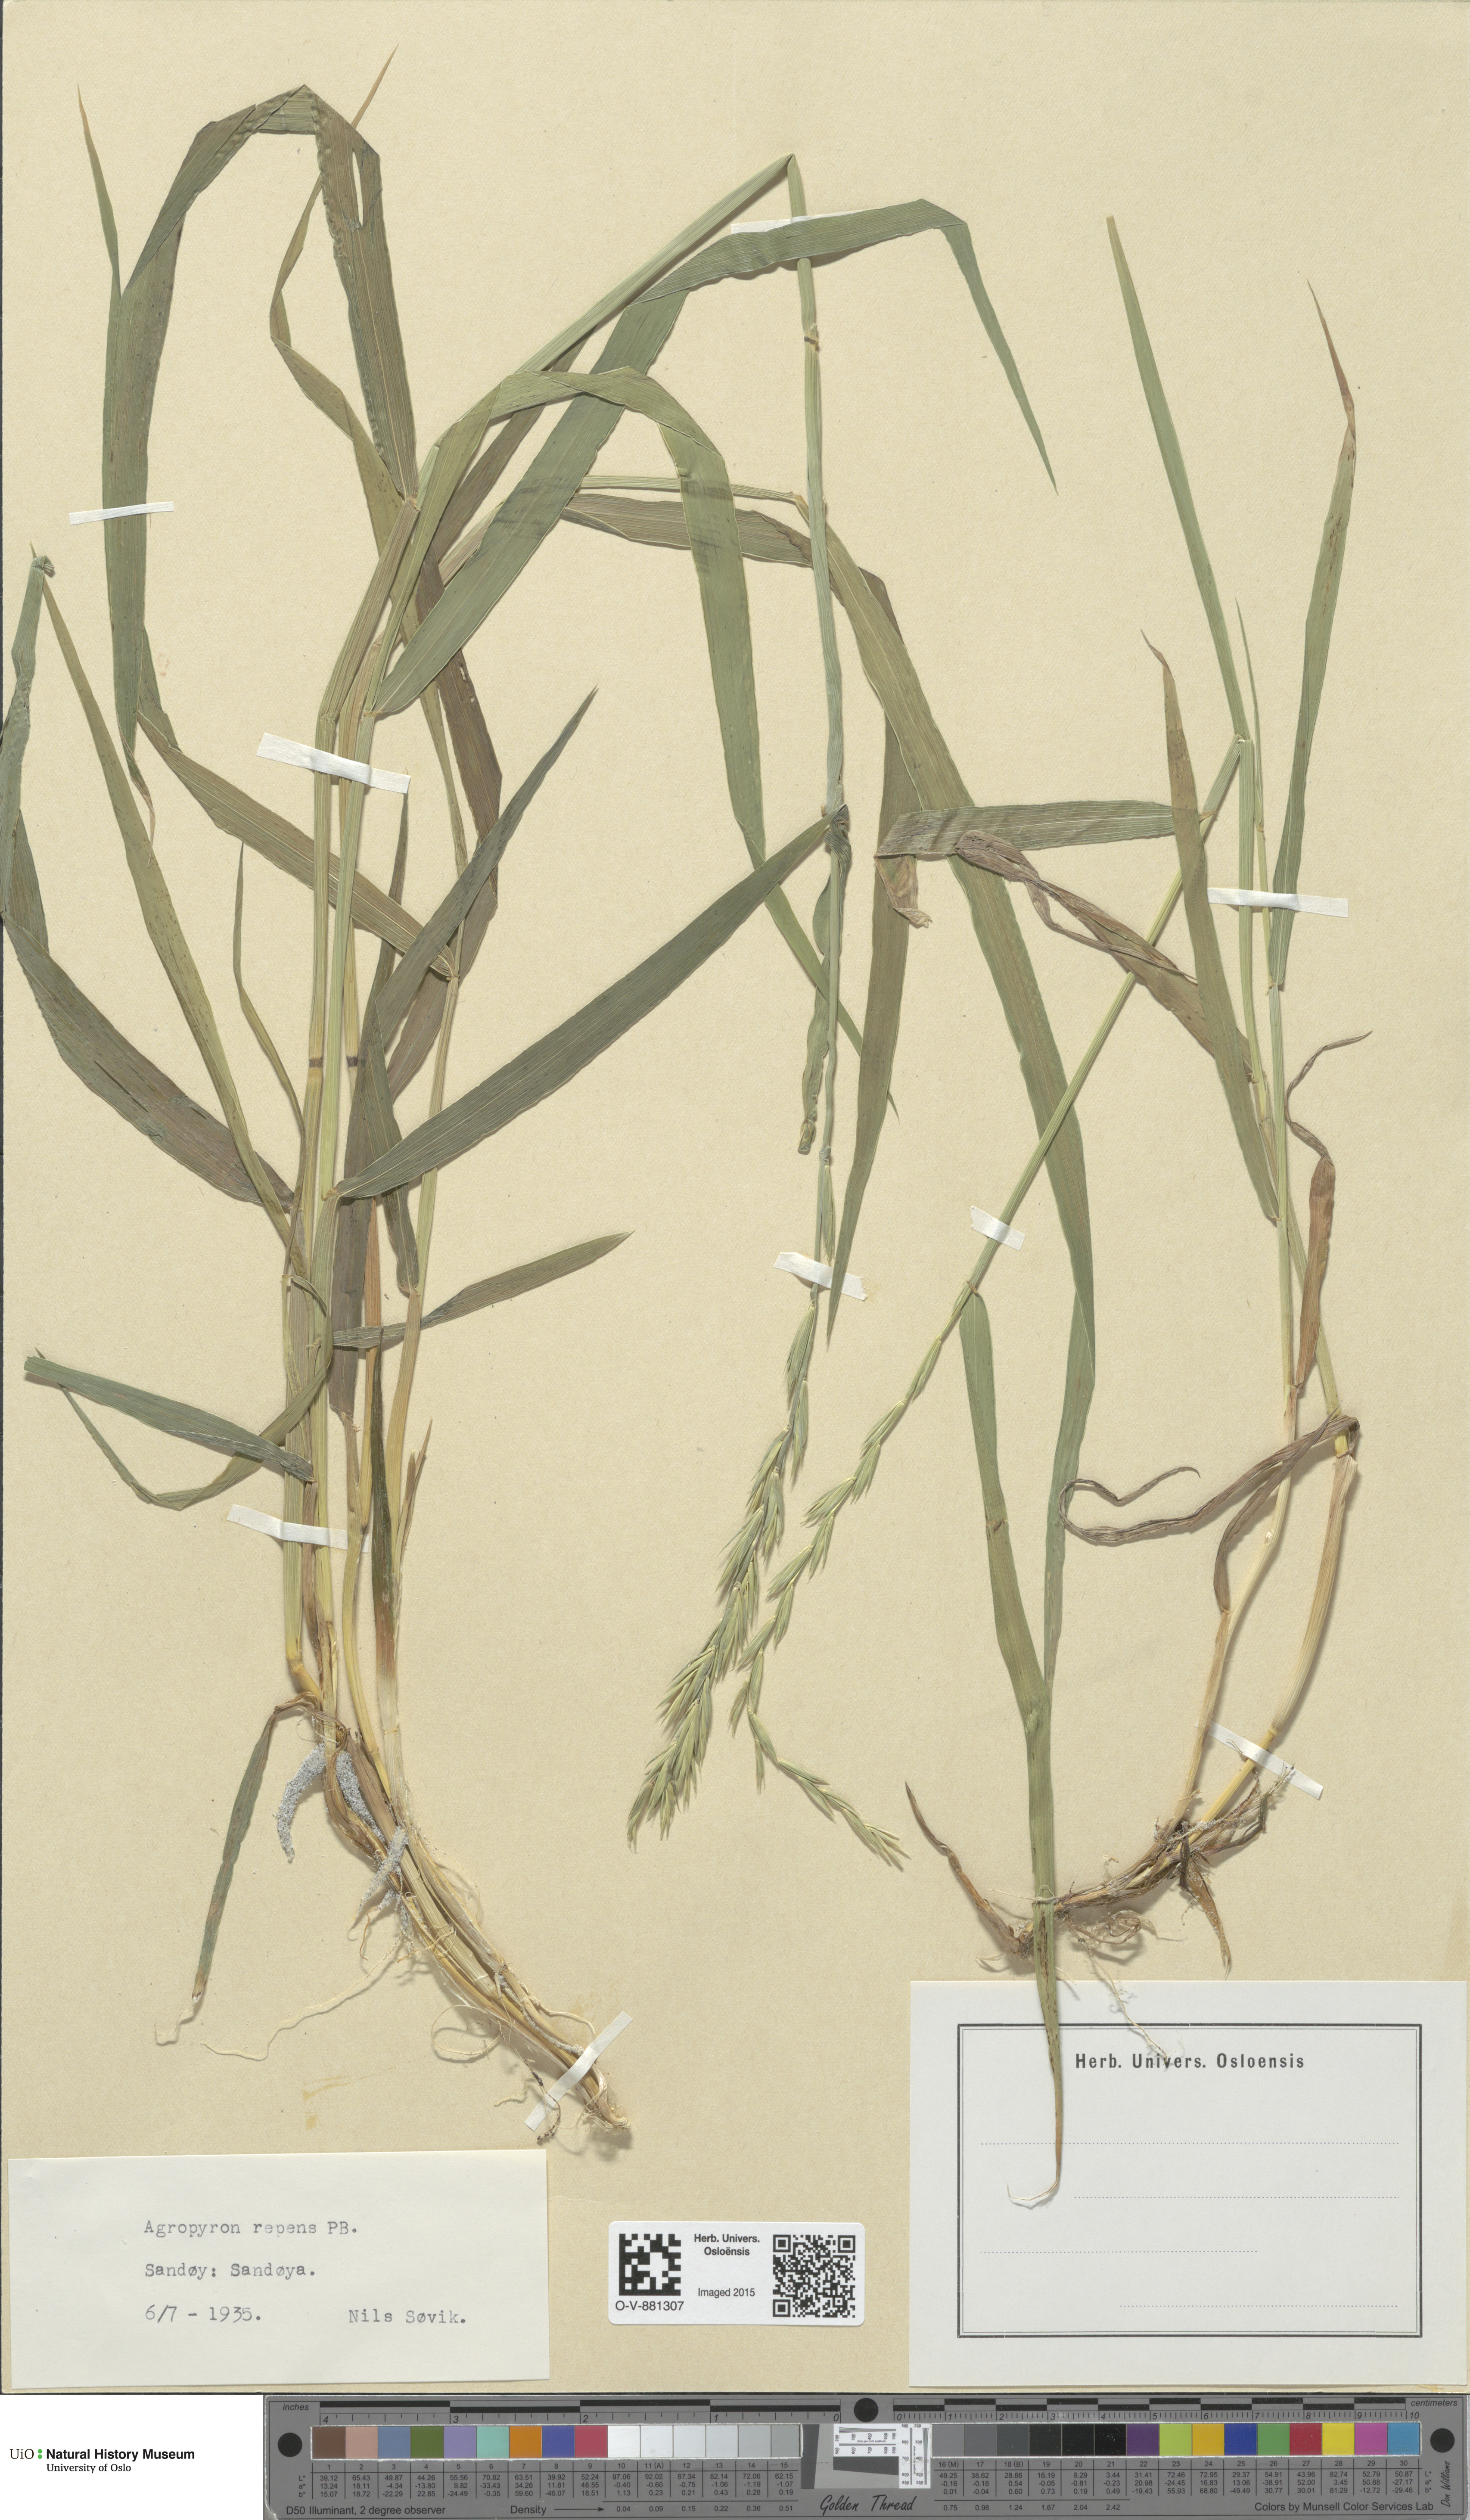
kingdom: Plantae
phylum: Tracheophyta
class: Liliopsida
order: Poales
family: Poaceae
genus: Elymus
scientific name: Elymus repens
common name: Quackgrass
